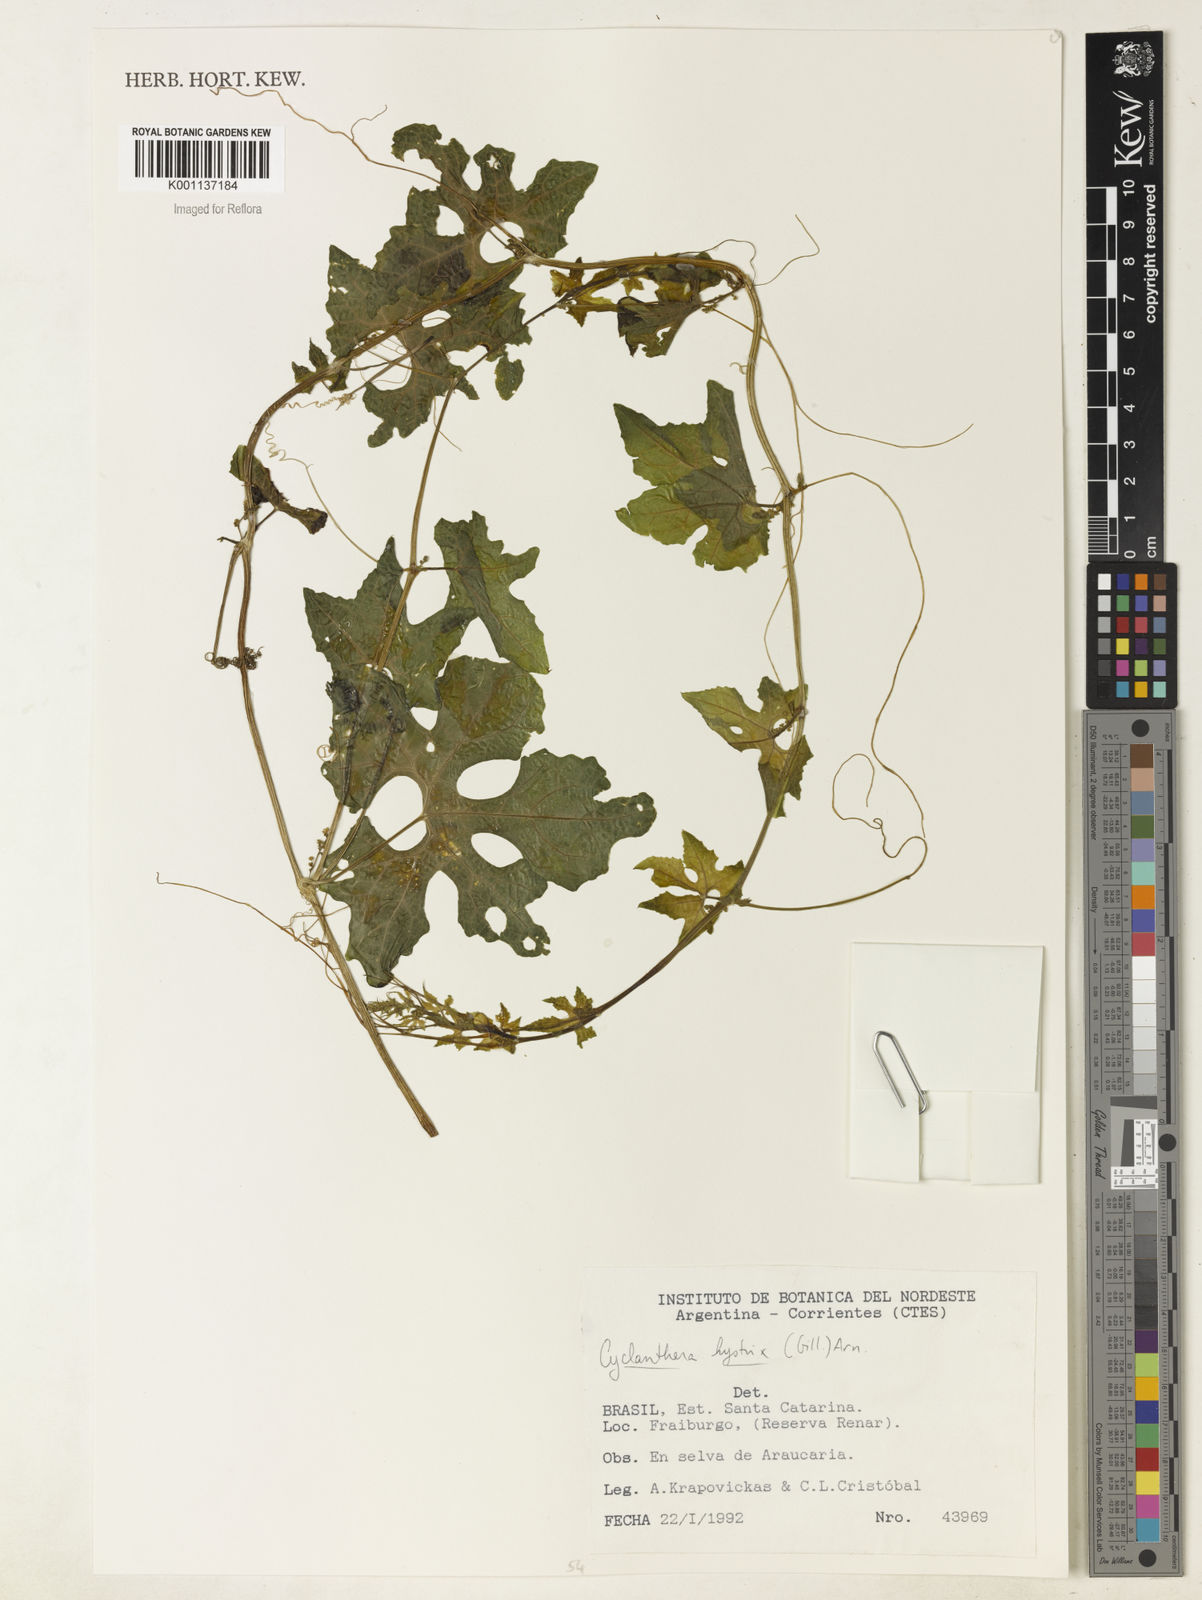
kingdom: Plantae
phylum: Tracheophyta
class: Magnoliopsida
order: Cucurbitales
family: Cucurbitaceae
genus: Cyclanthera
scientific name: Cyclanthera hystrix
